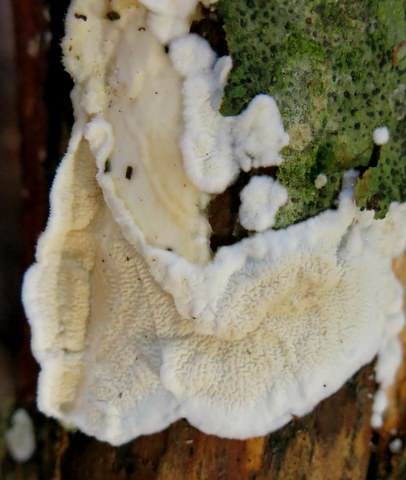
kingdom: Fungi
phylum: Basidiomycota
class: Agaricomycetes
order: Polyporales
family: Irpicaceae
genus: Byssomerulius
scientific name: Byssomerulius corium
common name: læder-åresvamp
